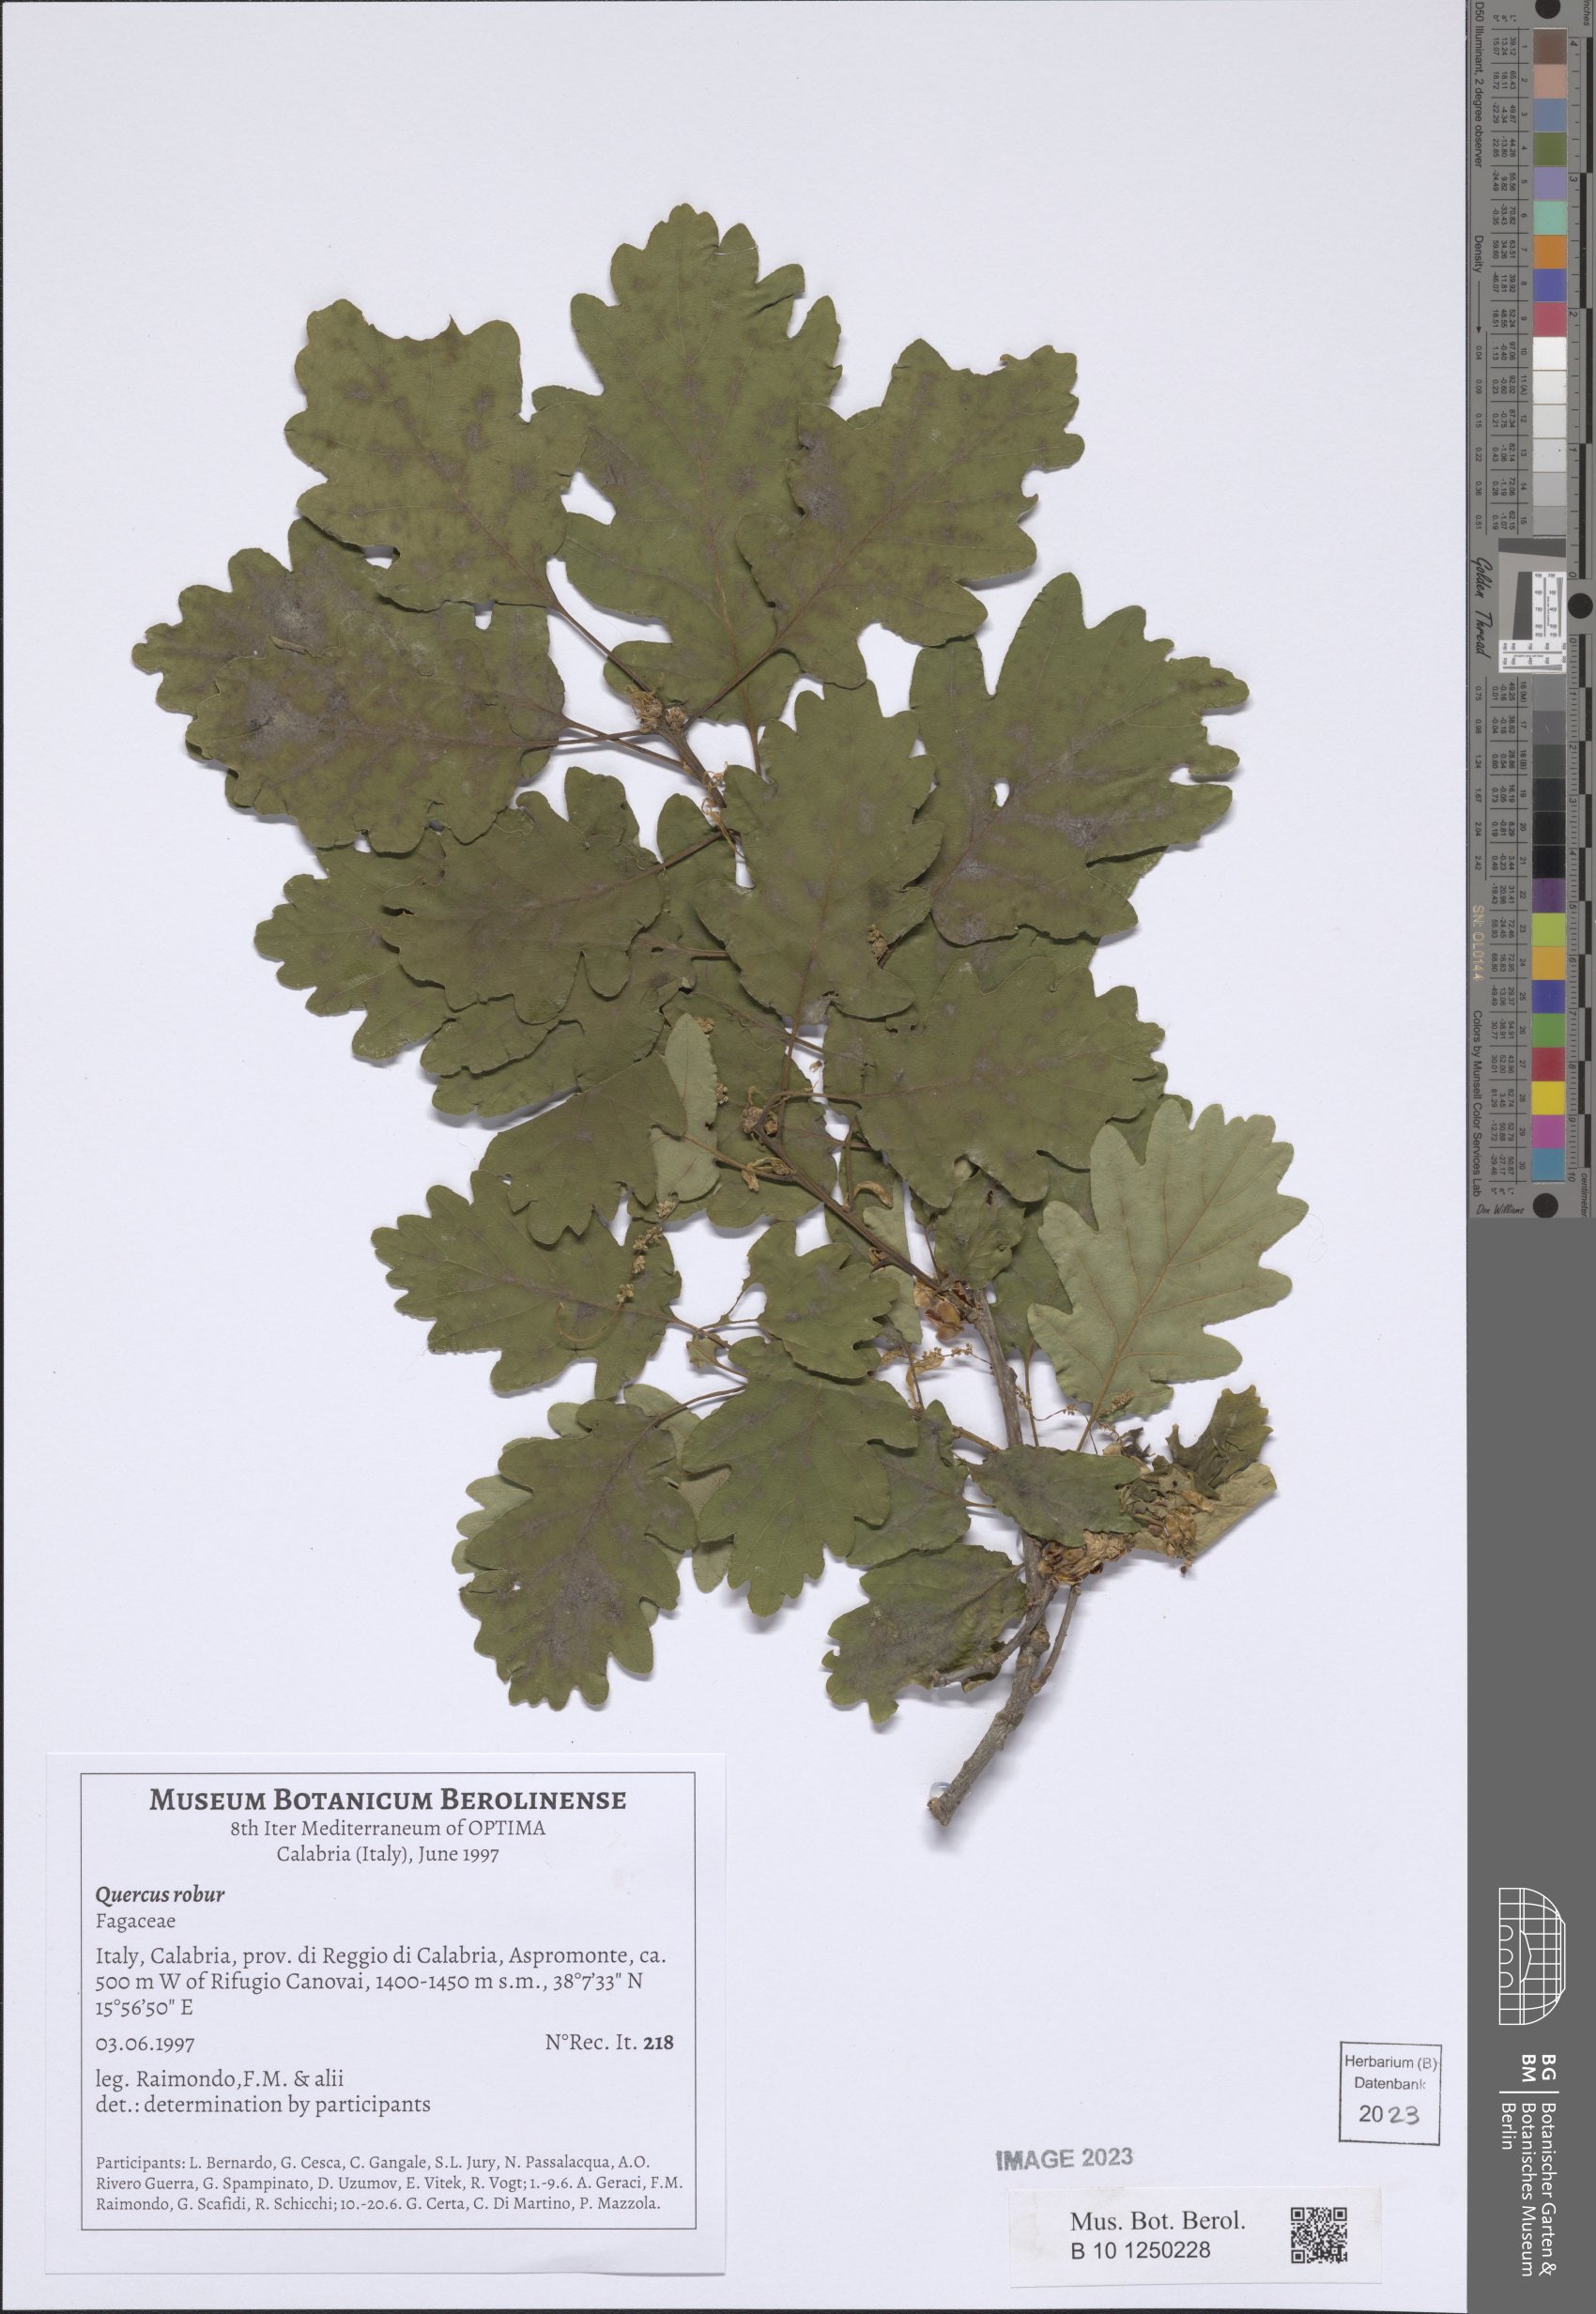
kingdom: Plantae
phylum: Tracheophyta
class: Magnoliopsida
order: Fagales
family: Fagaceae
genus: Quercus
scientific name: Quercus robur
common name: Pedunculate oak
